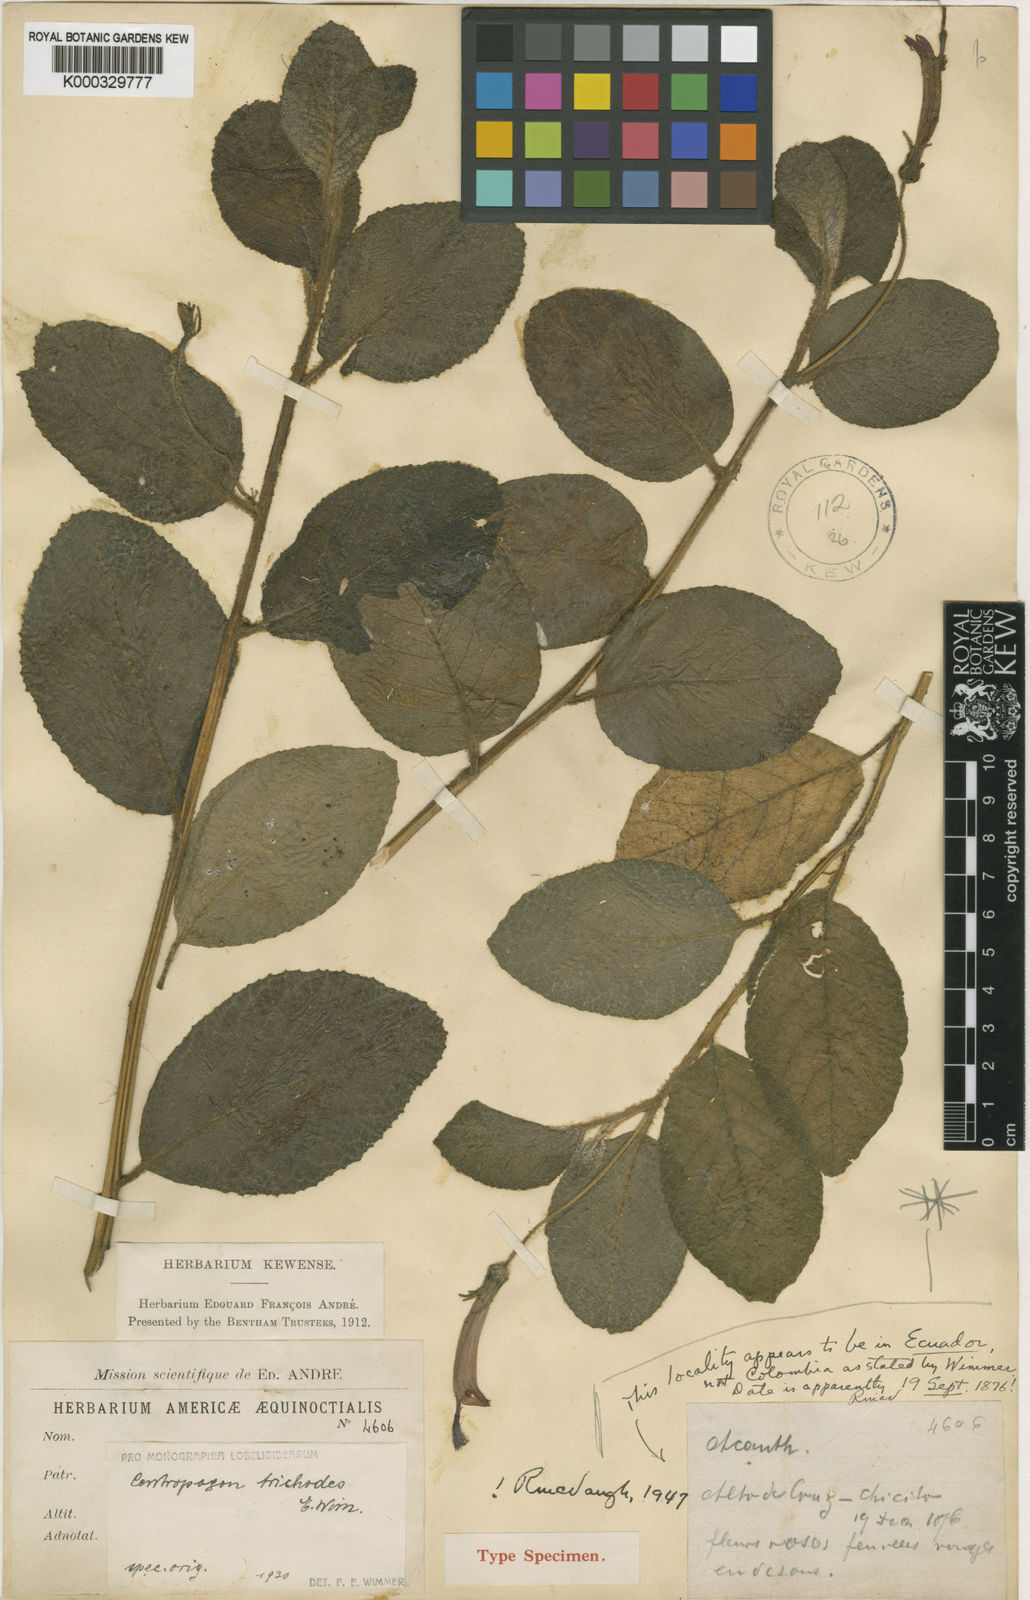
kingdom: Plantae
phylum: Tracheophyta
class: Magnoliopsida
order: Asterales
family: Campanulaceae
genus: Centropogon
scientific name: Centropogon heteropilis
